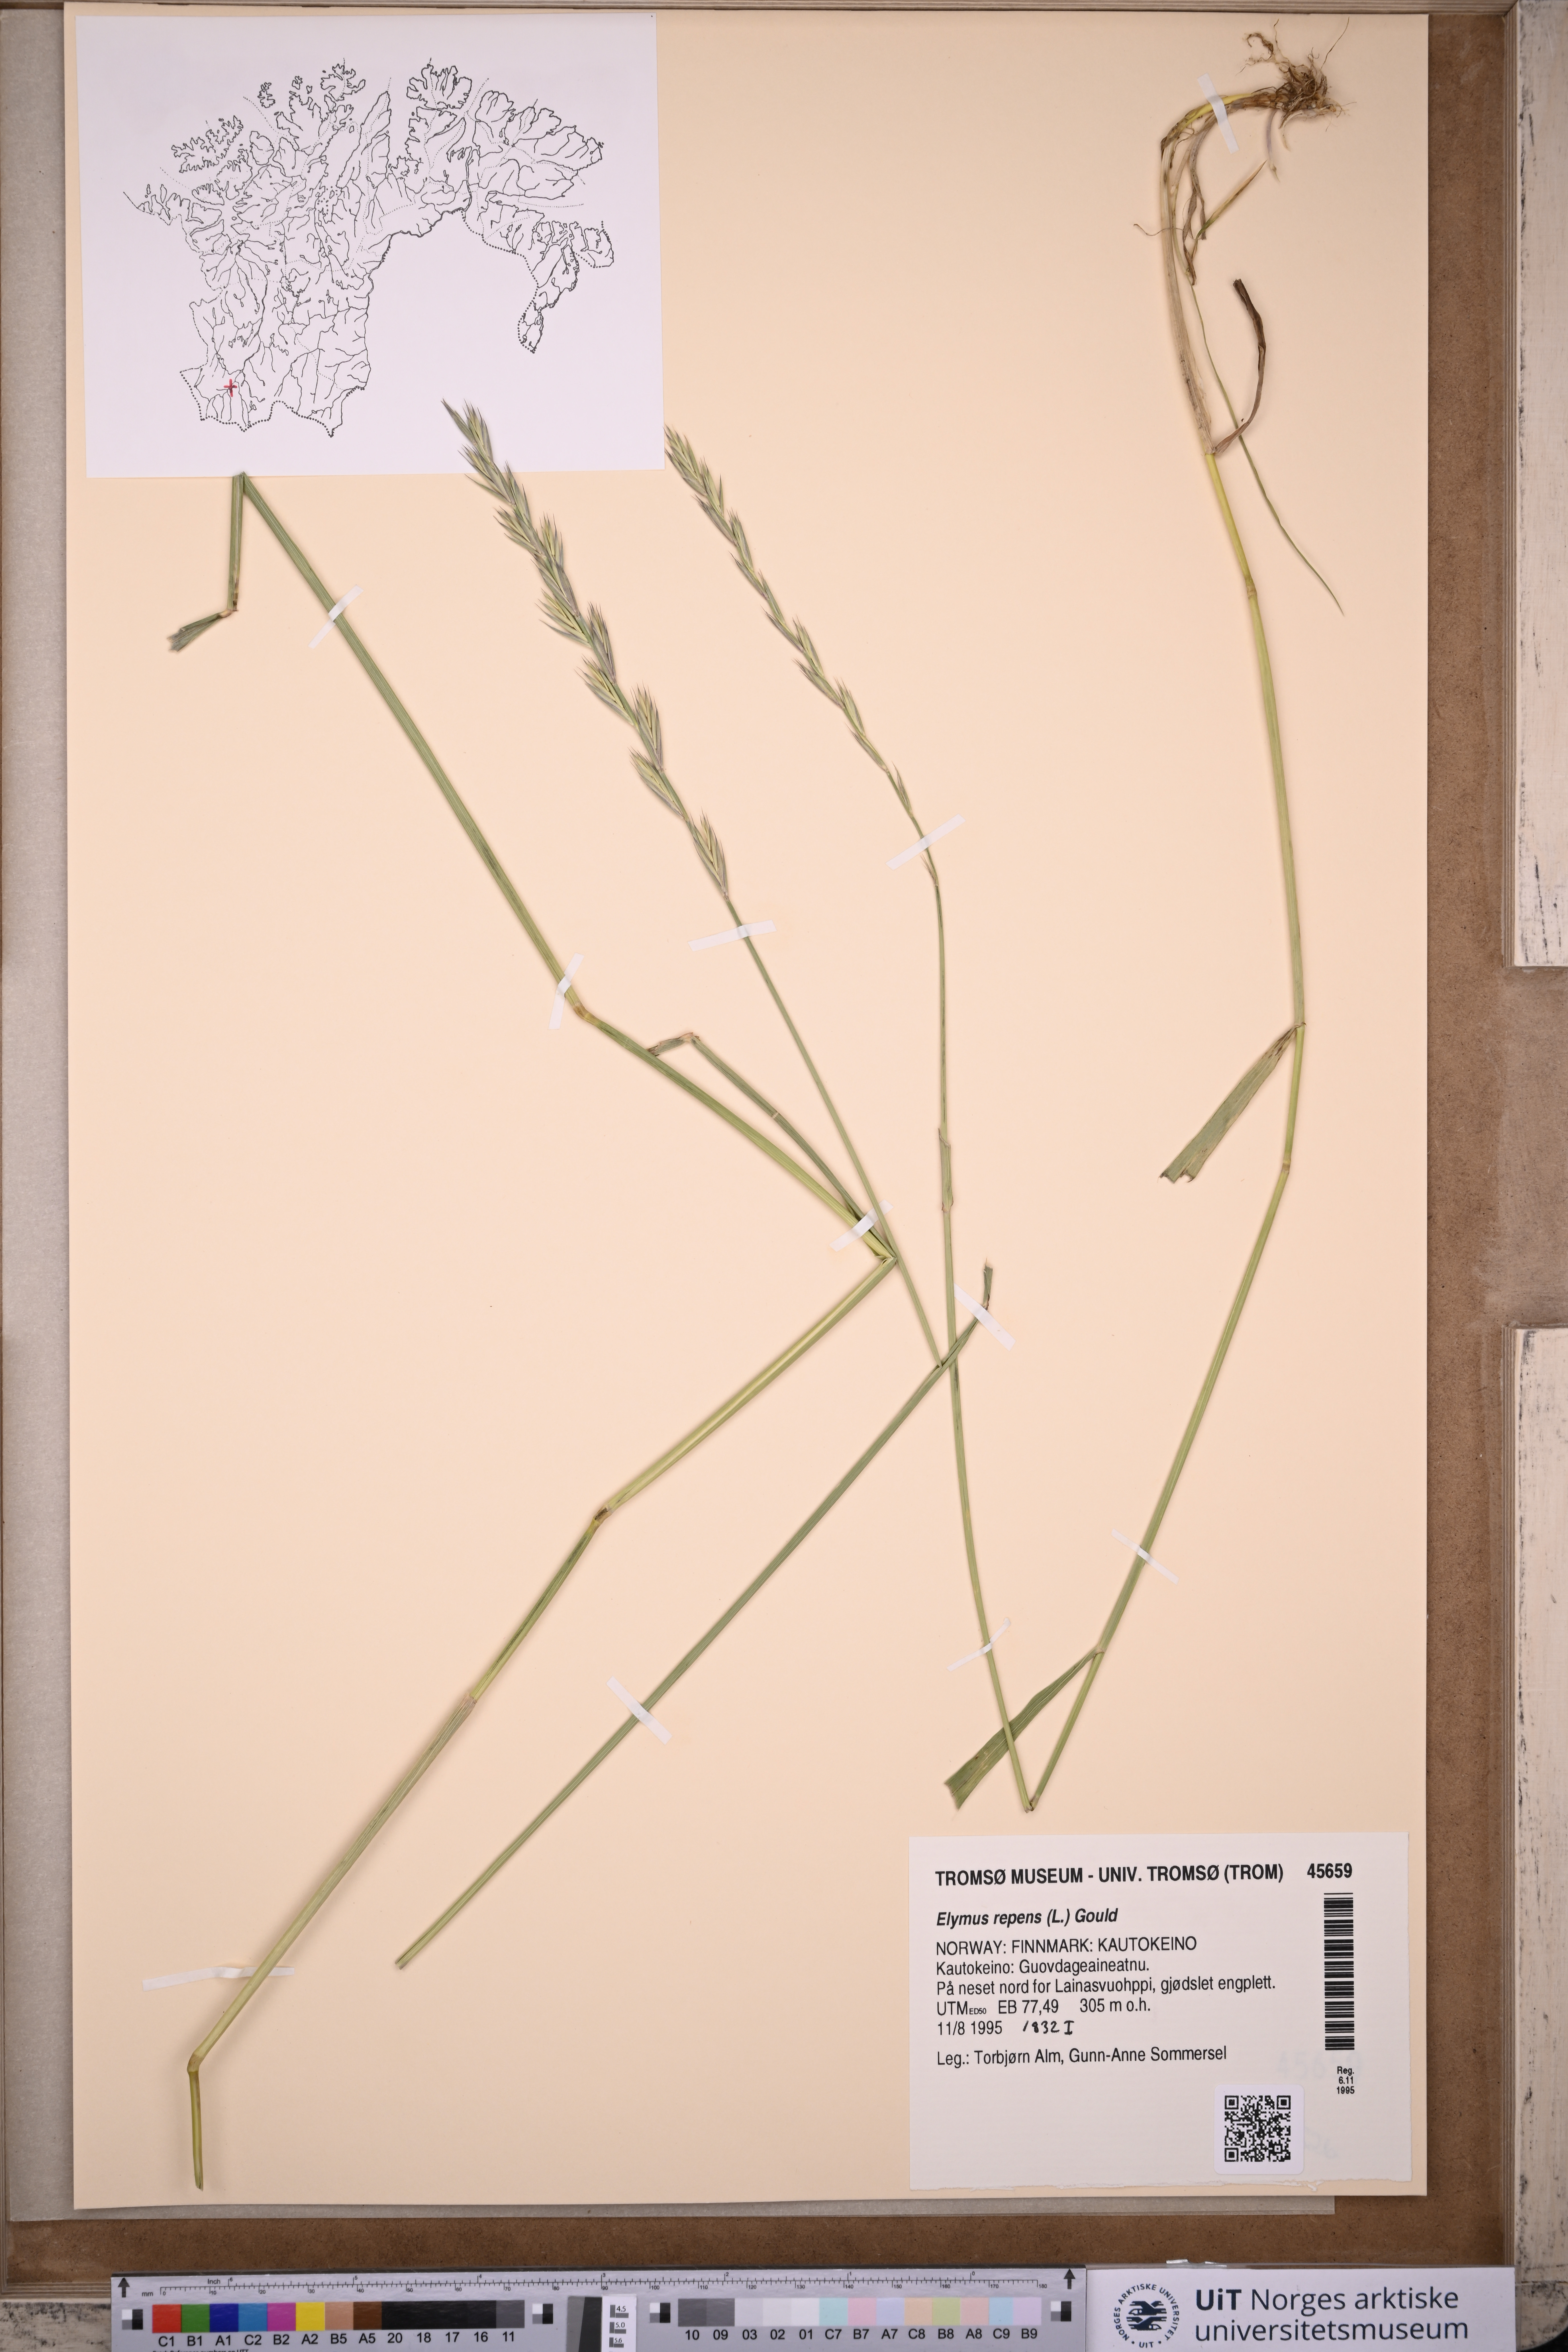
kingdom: Plantae
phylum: Tracheophyta
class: Liliopsida
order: Poales
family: Poaceae
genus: Elymus
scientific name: Elymus repens
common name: Quackgrass
